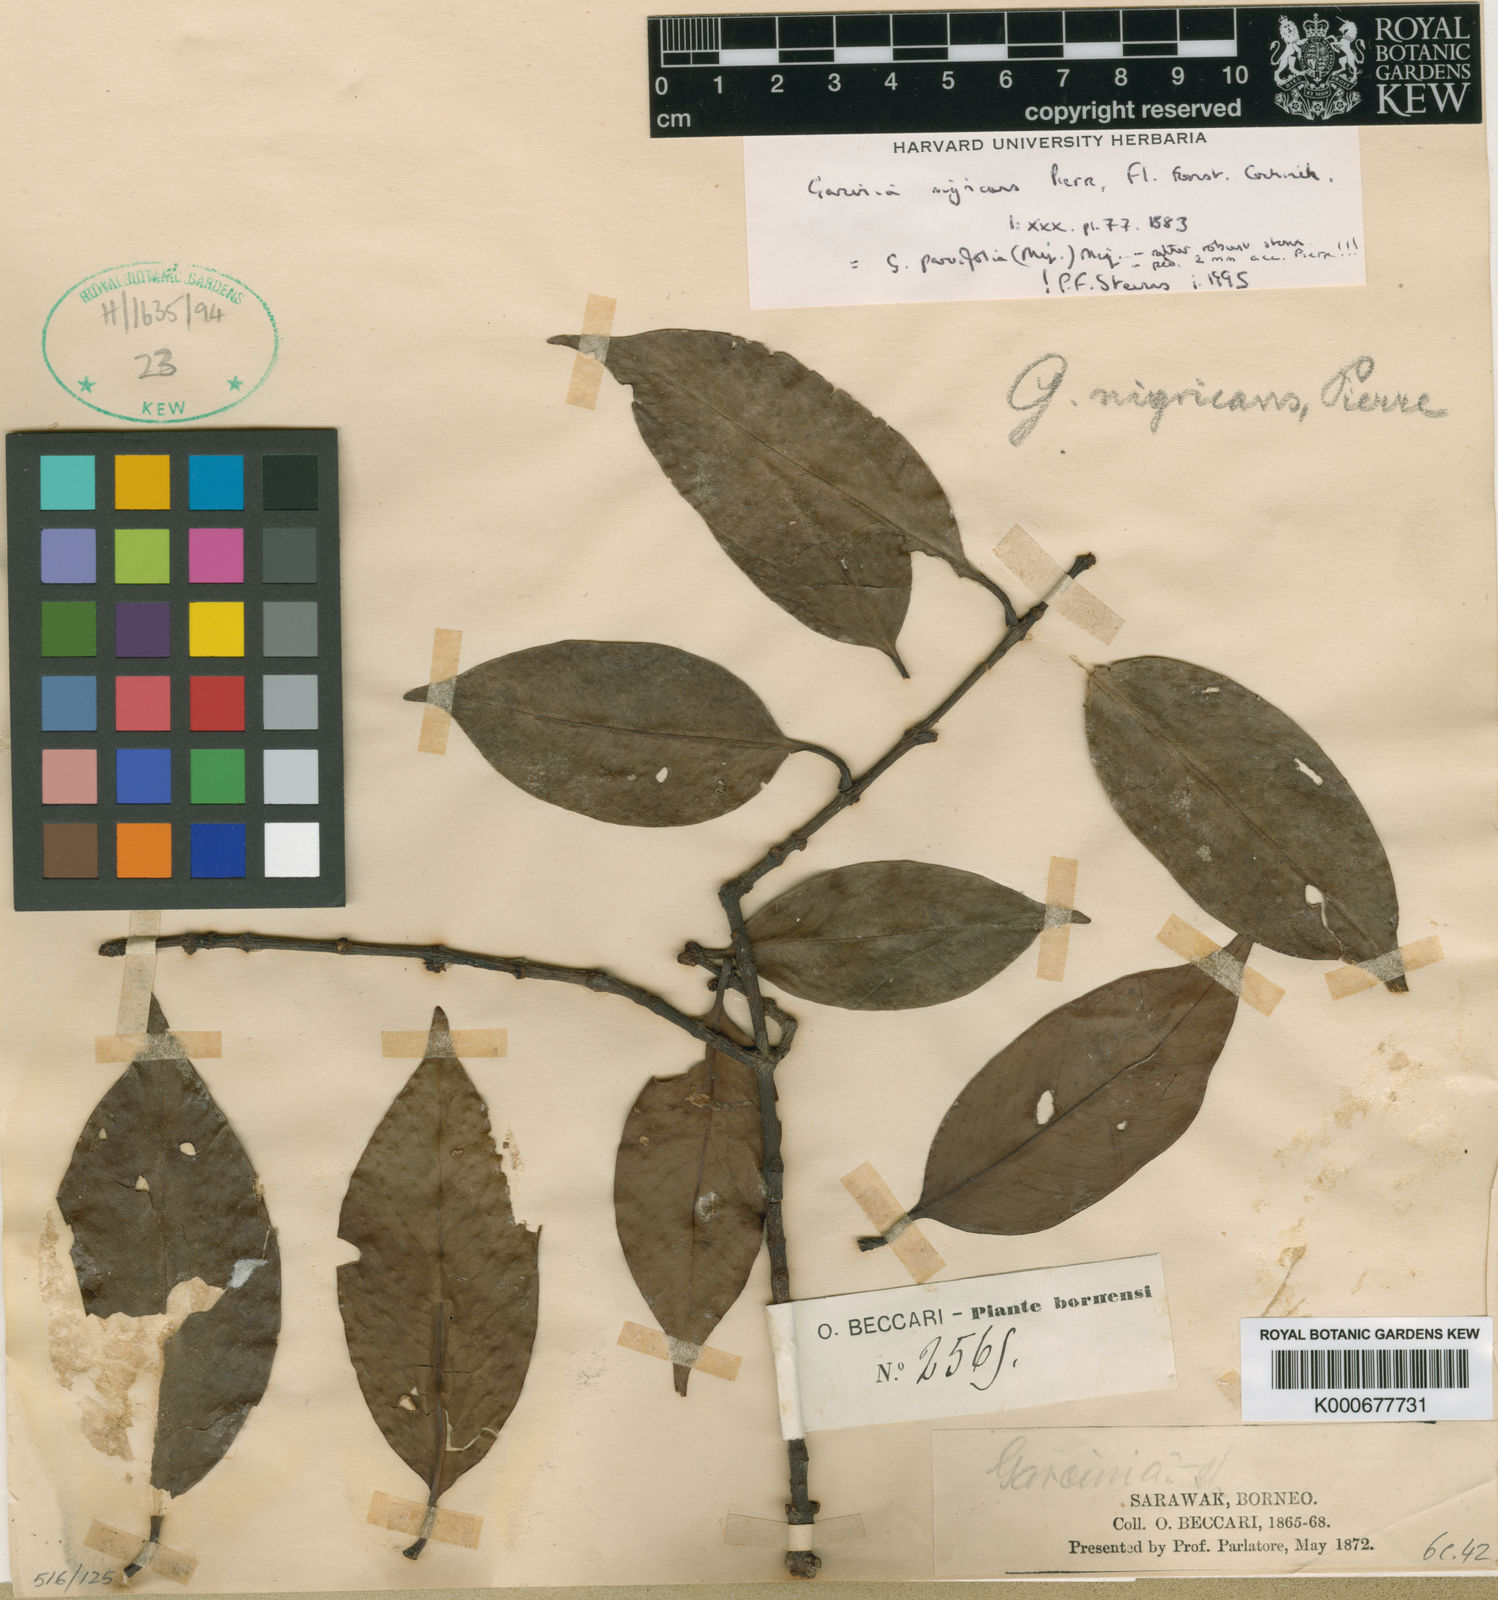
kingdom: Plantae
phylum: Tracheophyta
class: Magnoliopsida
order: Malpighiales
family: Clusiaceae
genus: Garcinia
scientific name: Garcinia nigricans
